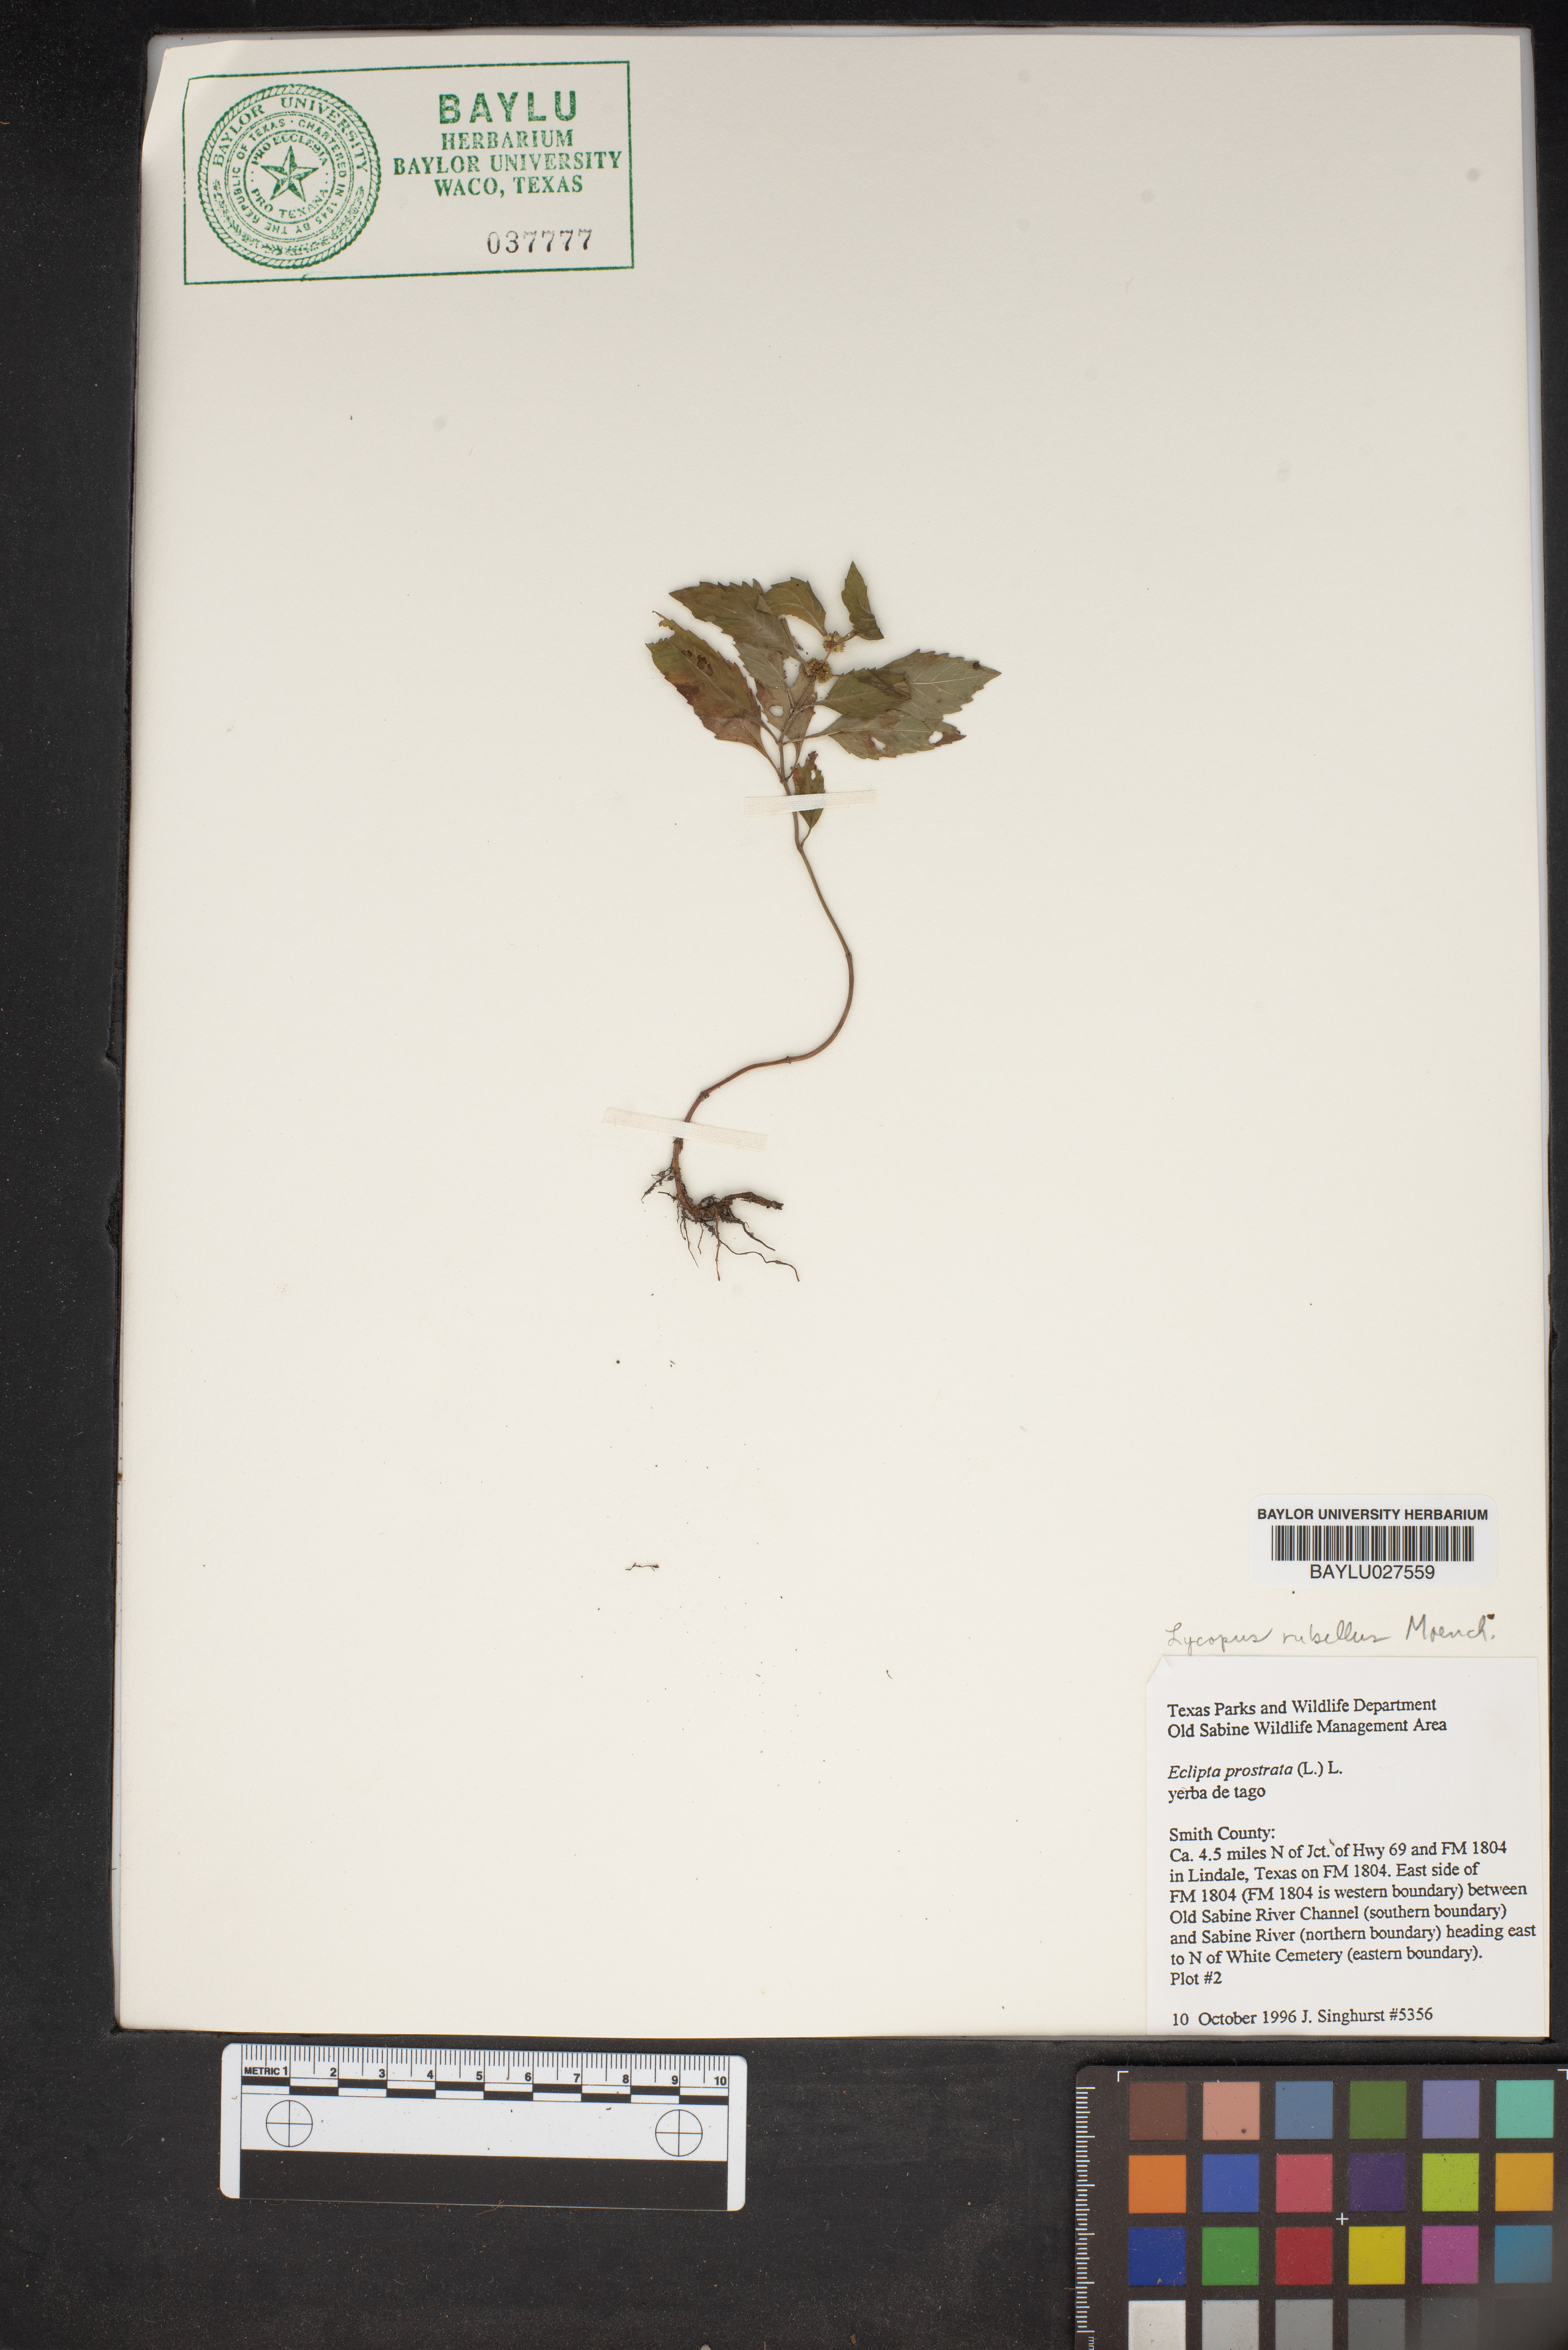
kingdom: Plantae
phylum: Tracheophyta
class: Magnoliopsida
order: Asterales
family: Asteraceae
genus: Eclipta
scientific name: Eclipta prostrata
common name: False daisy
